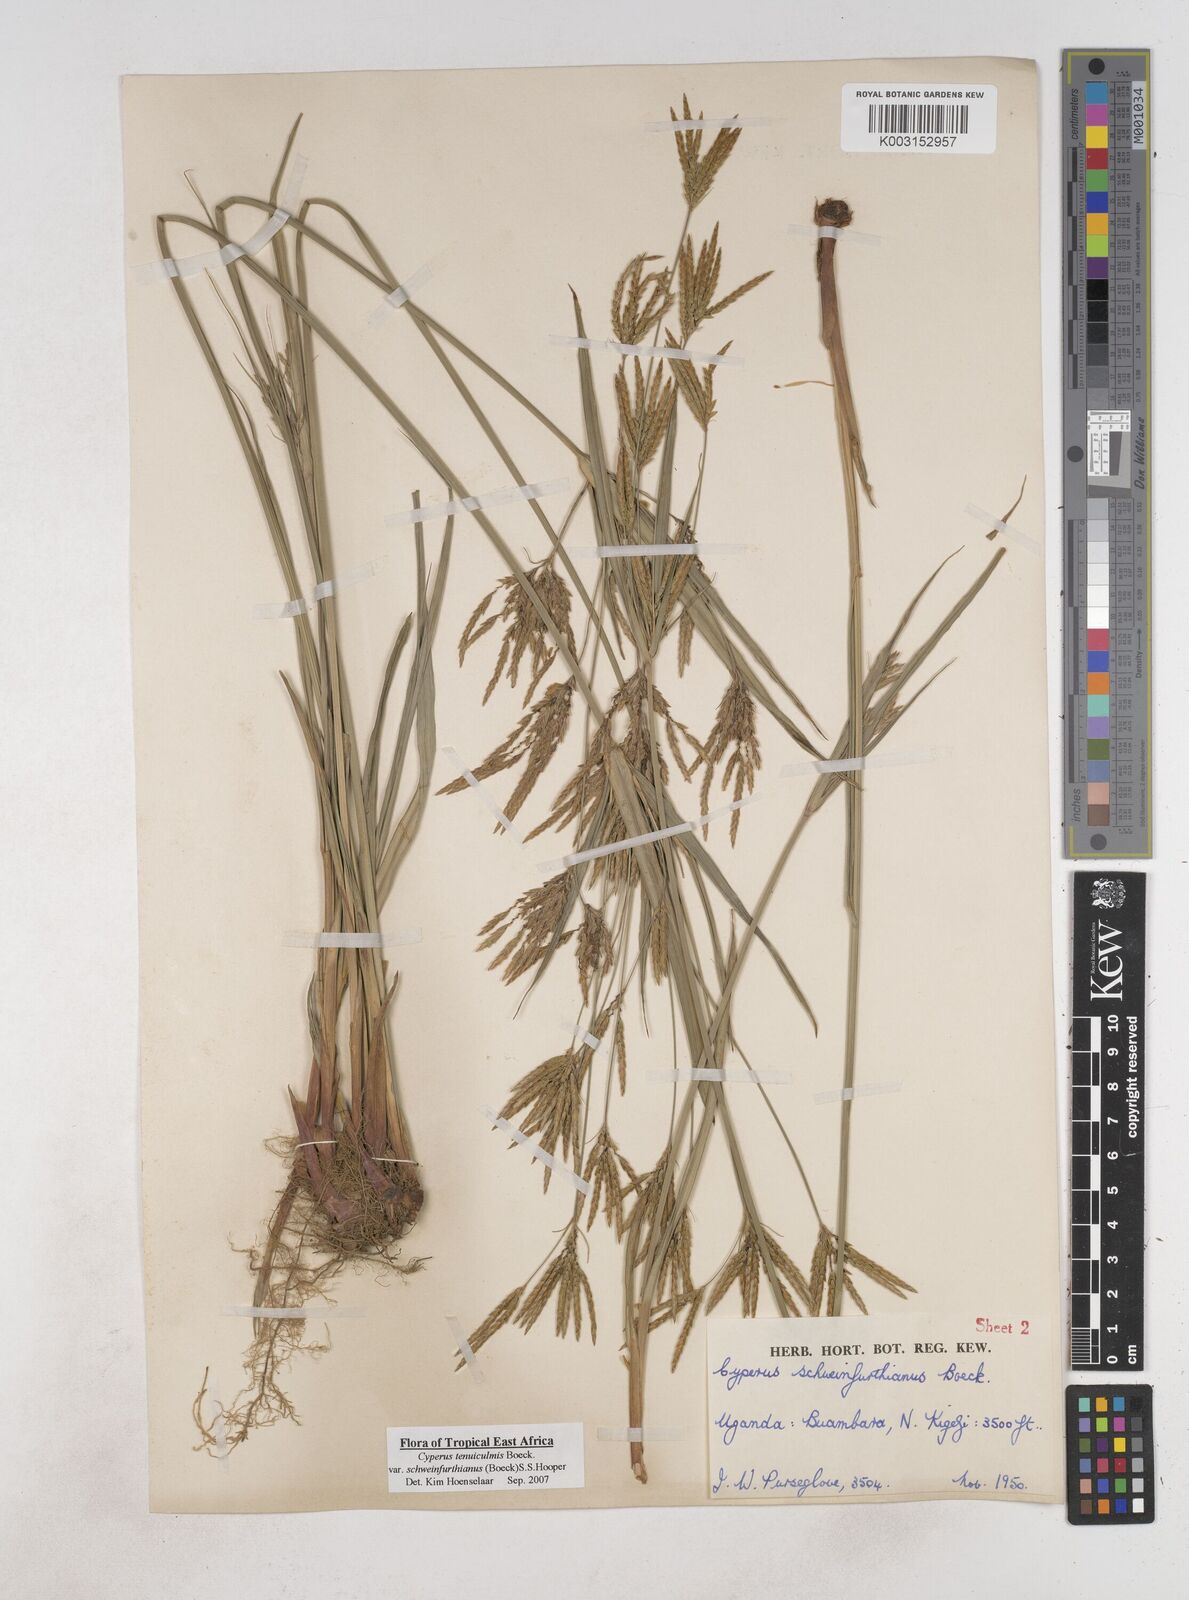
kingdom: Plantae
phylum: Tracheophyta
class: Liliopsida
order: Poales
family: Cyperaceae
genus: Cyperus
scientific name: Cyperus tenuiculmis
